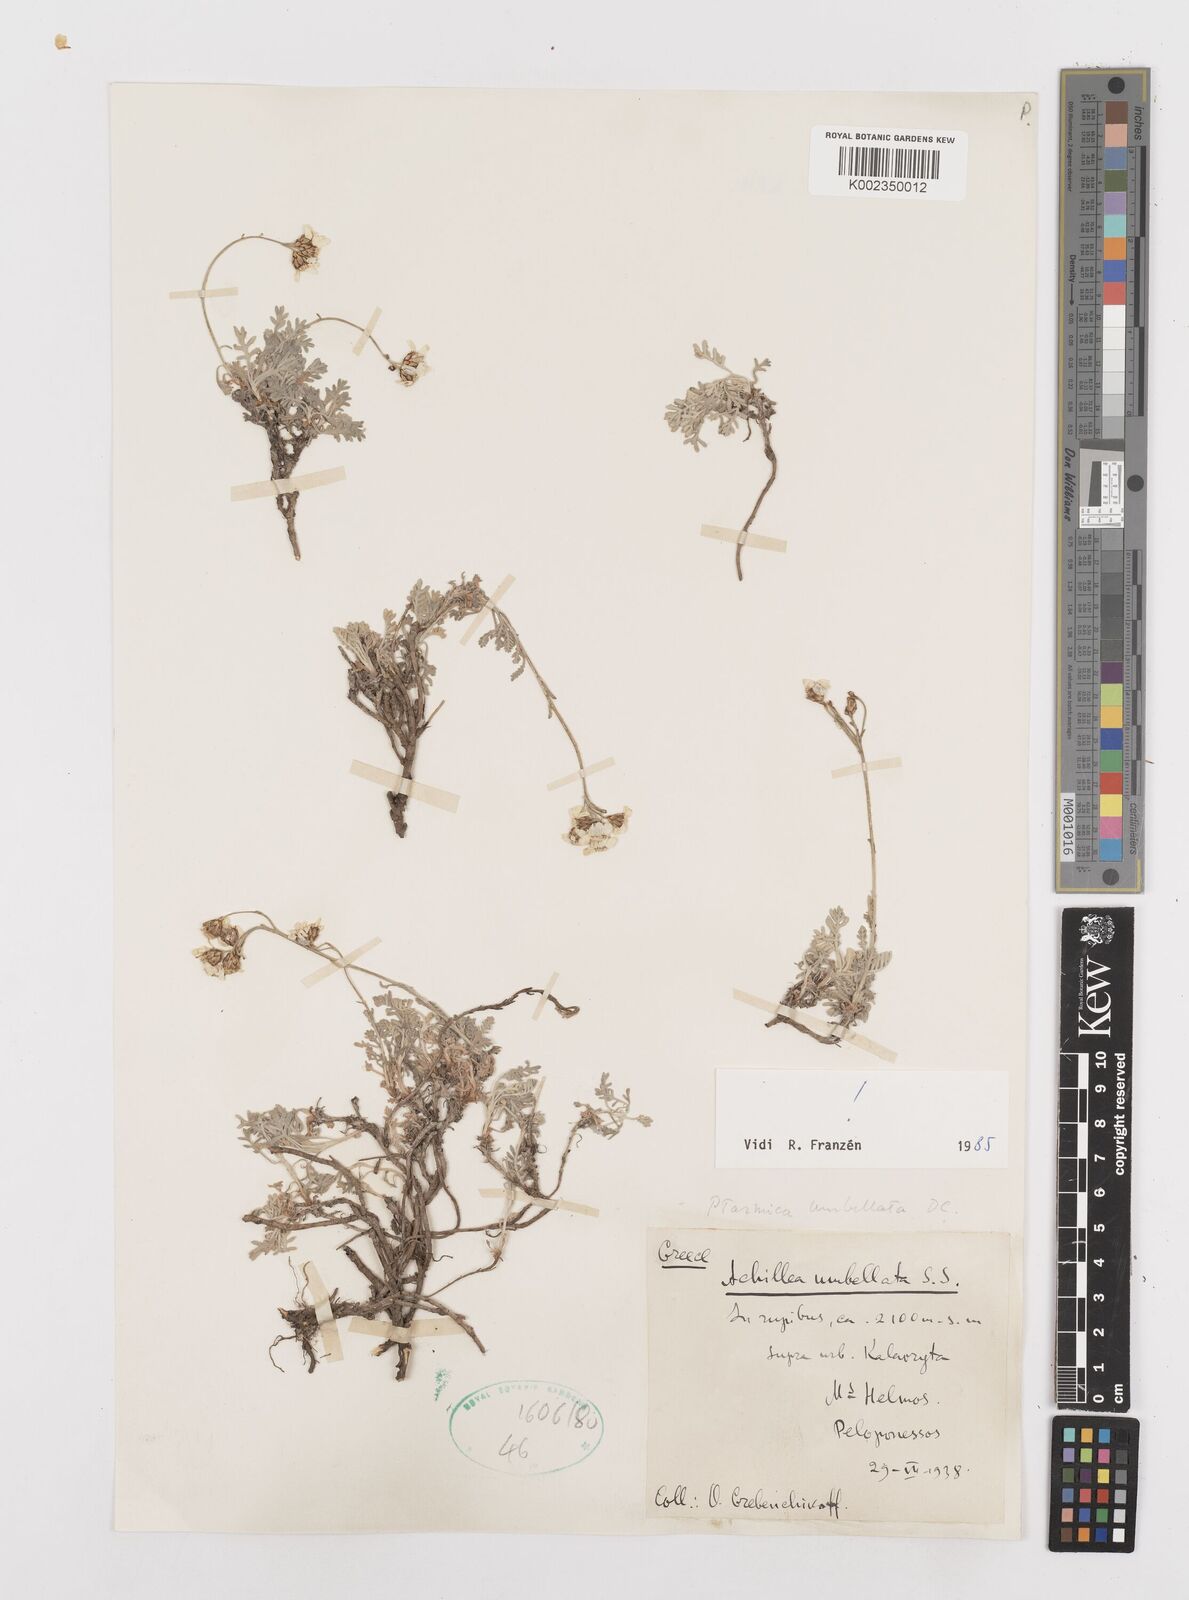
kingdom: Plantae
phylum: Tracheophyta
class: Magnoliopsida
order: Asterales
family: Asteraceae
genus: Achillea
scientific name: Achillea umbellata
